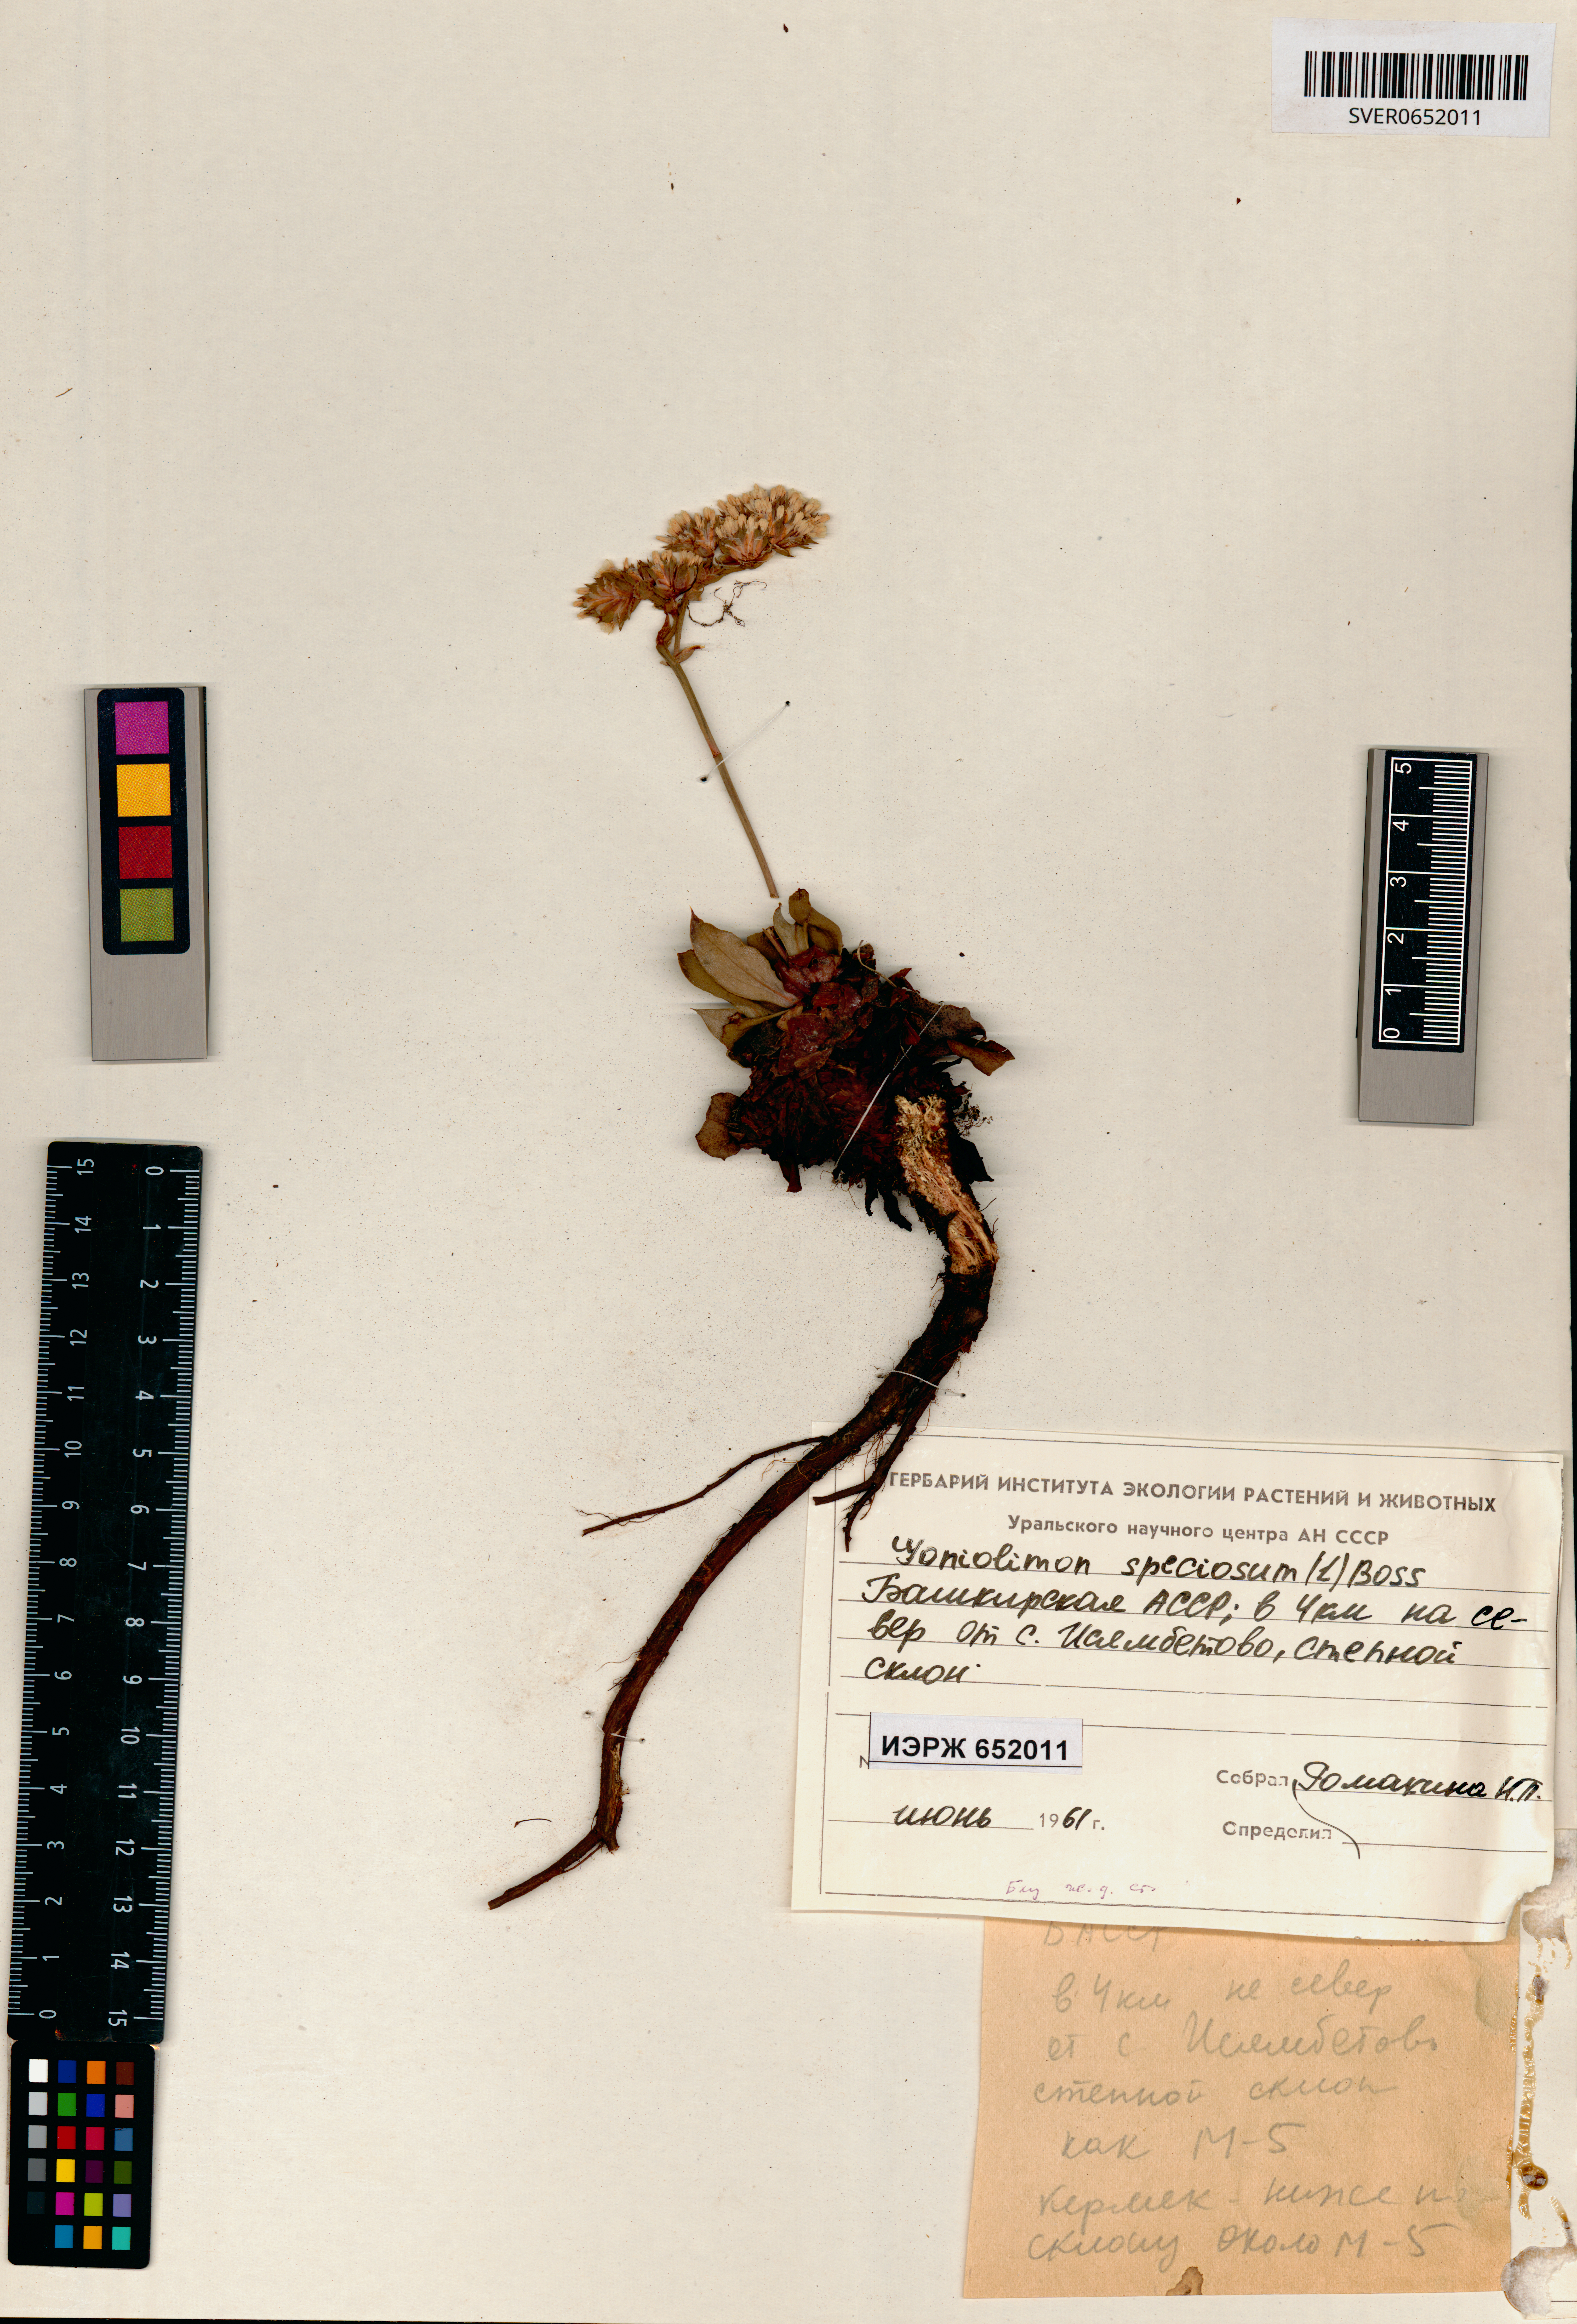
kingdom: Plantae
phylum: Tracheophyta
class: Magnoliopsida
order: Caryophyllales
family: Plumbaginaceae
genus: Goniolimon
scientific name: Goniolimon speciosum
